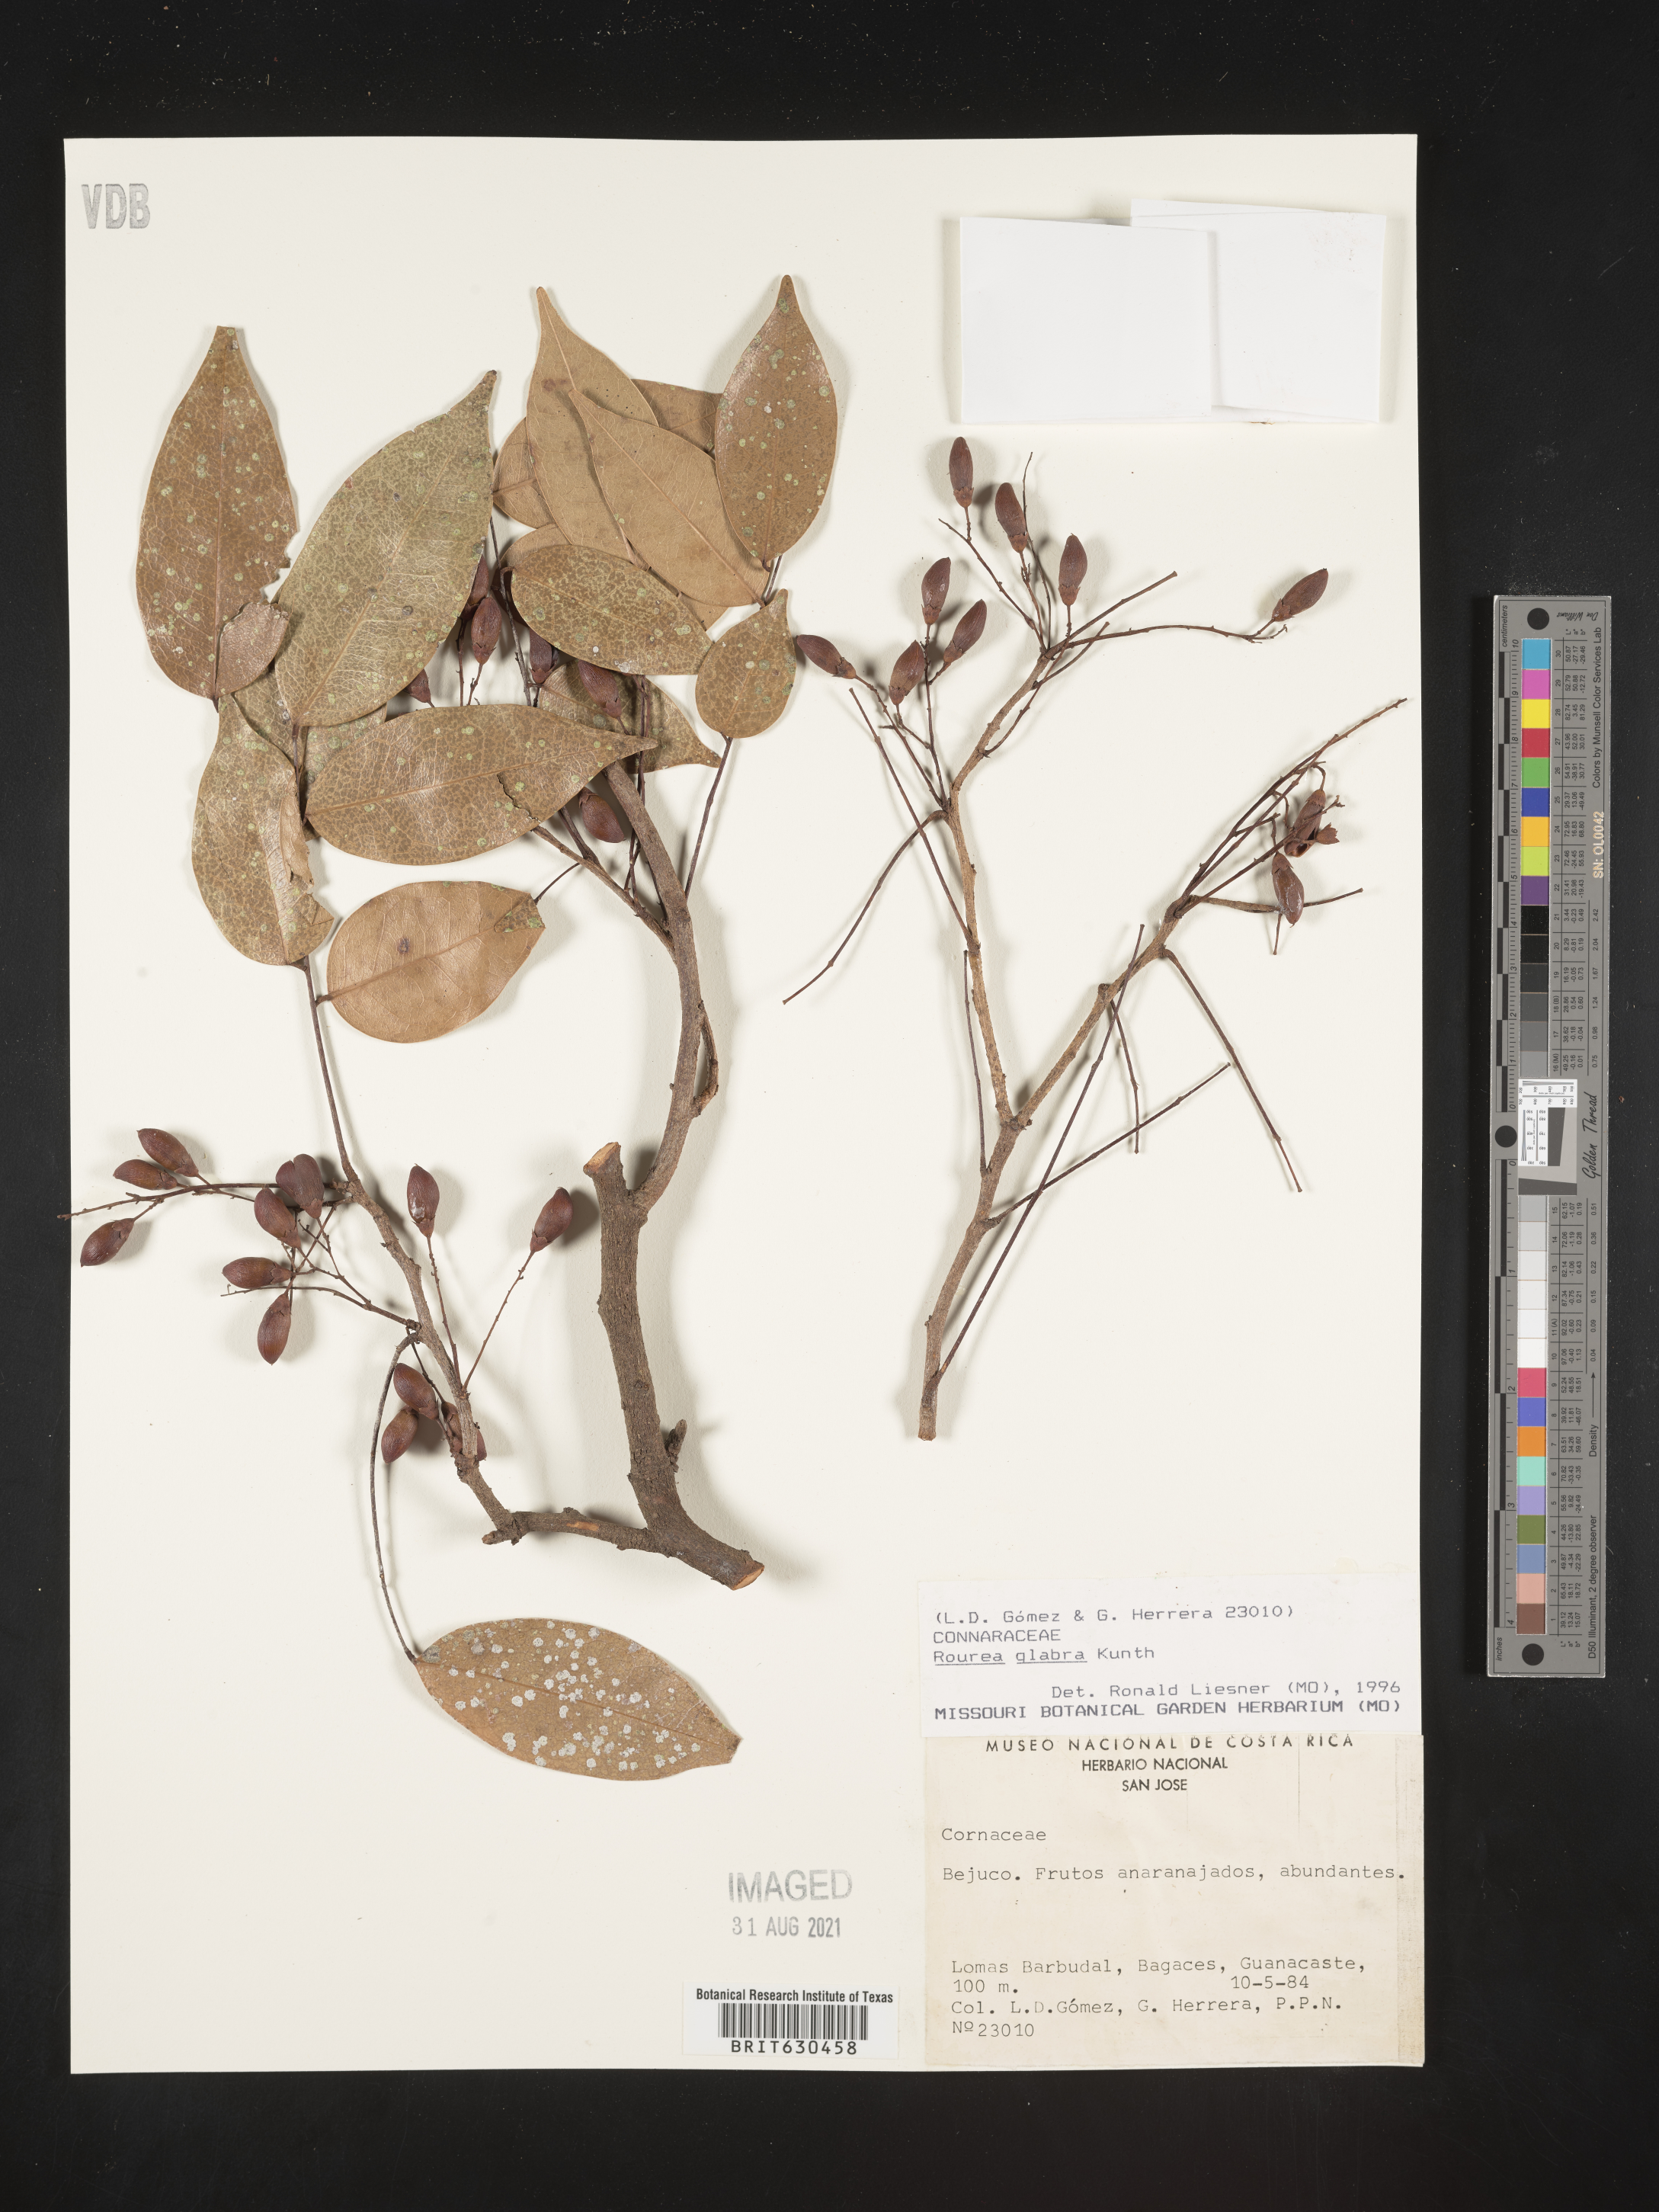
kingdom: Plantae
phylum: Tracheophyta
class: Magnoliopsida
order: Oxalidales
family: Connaraceae
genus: Rourea
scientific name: Rourea glabra
